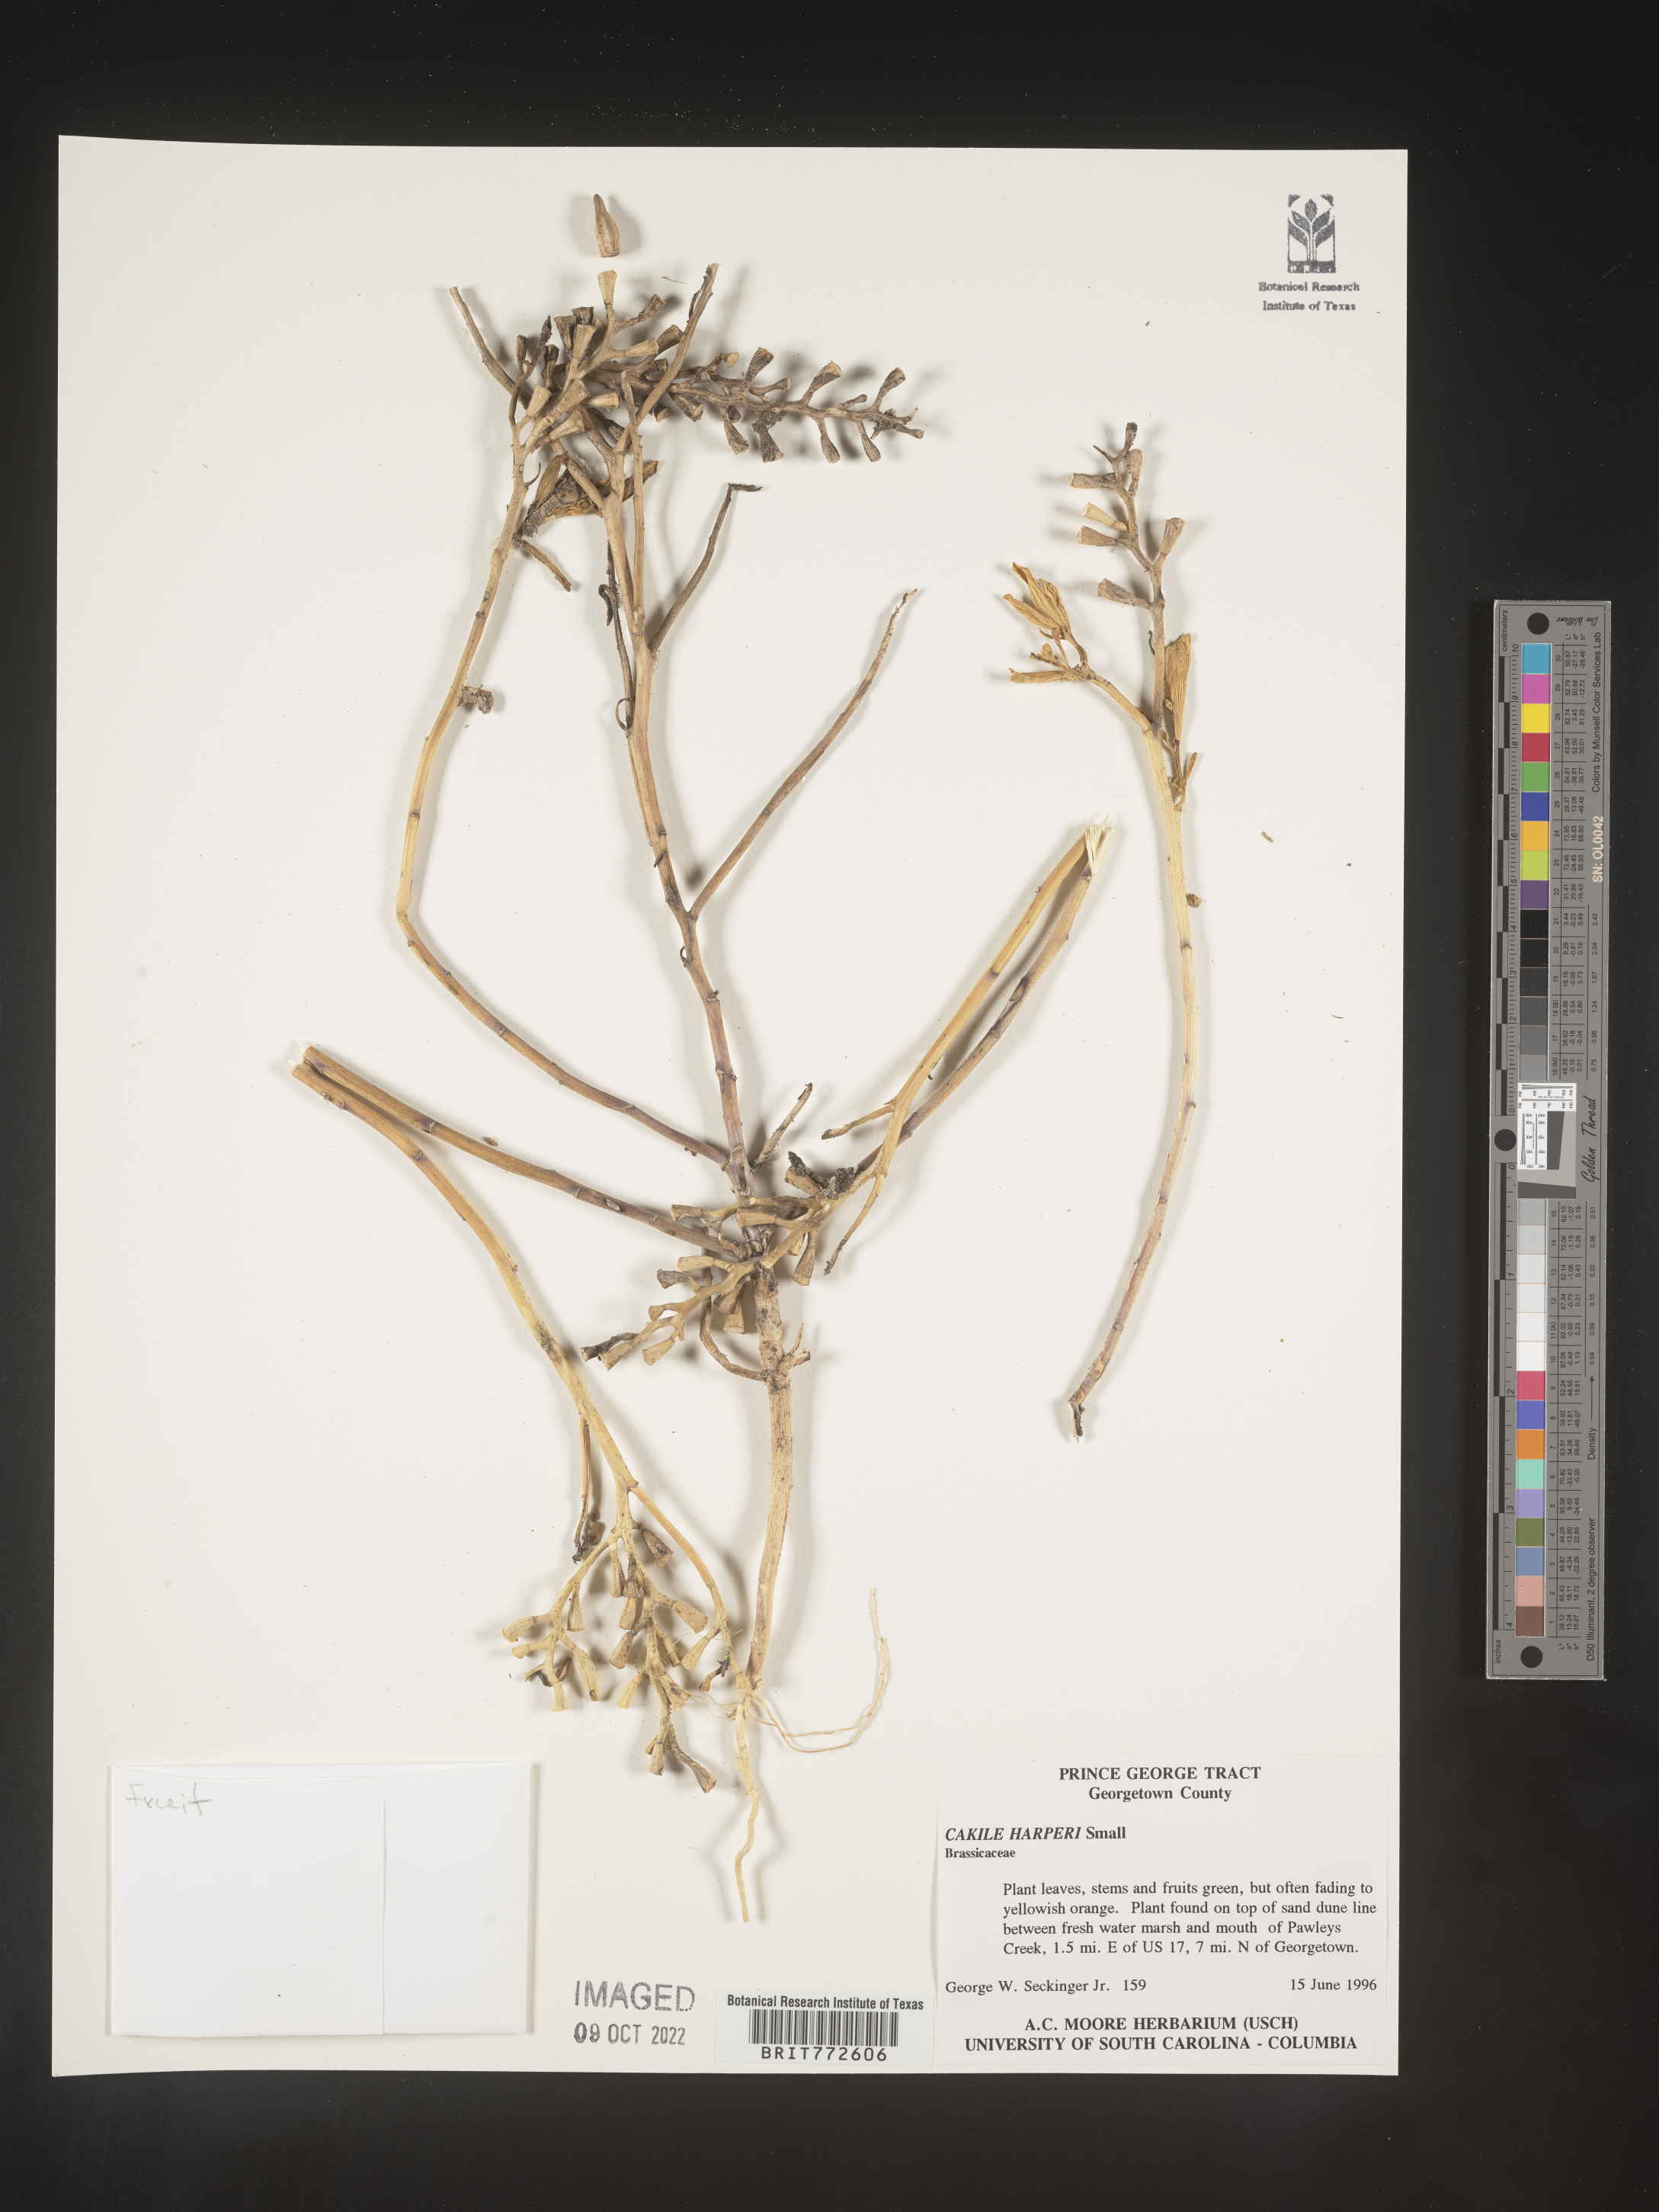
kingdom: Plantae
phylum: Tracheophyta
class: Magnoliopsida
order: Brassicales
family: Brassicaceae
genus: Cakile
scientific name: Cakile edentula
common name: American sea rocket
